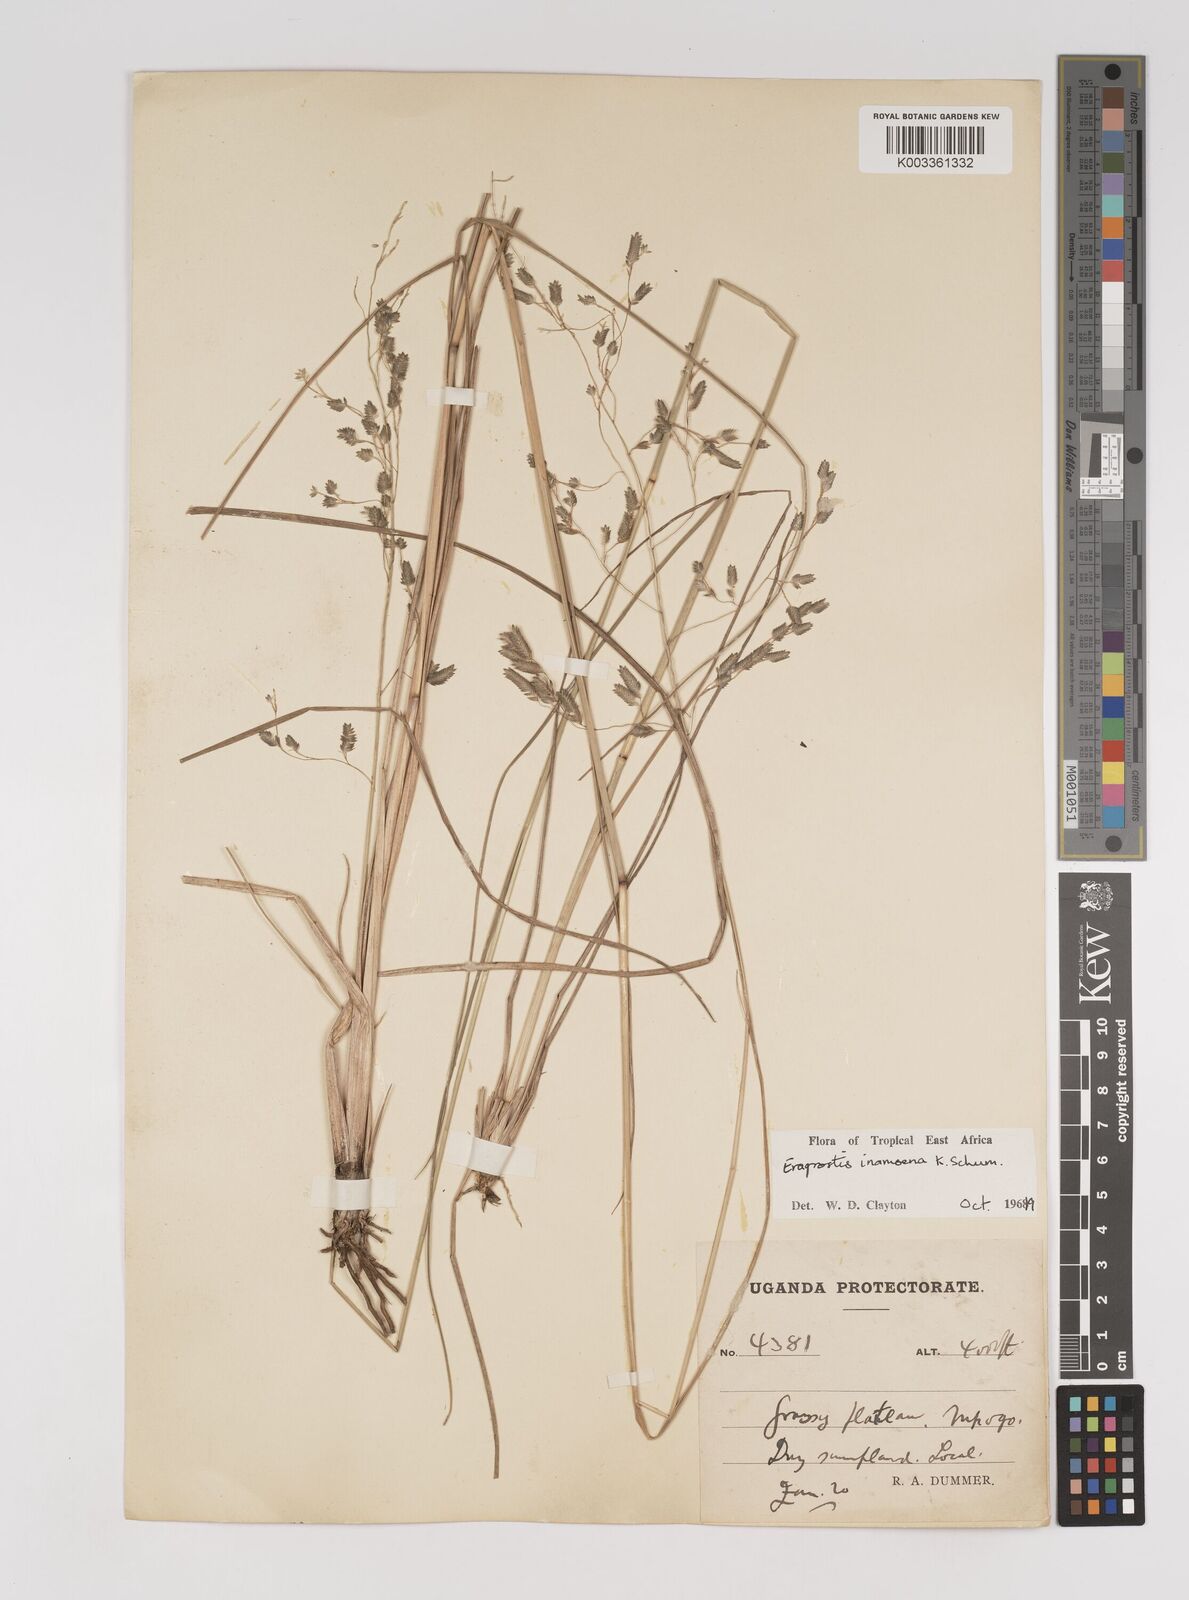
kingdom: Plantae
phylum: Tracheophyta
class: Liliopsida
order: Poales
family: Poaceae
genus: Eragrostis
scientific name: Eragrostis inamoena
